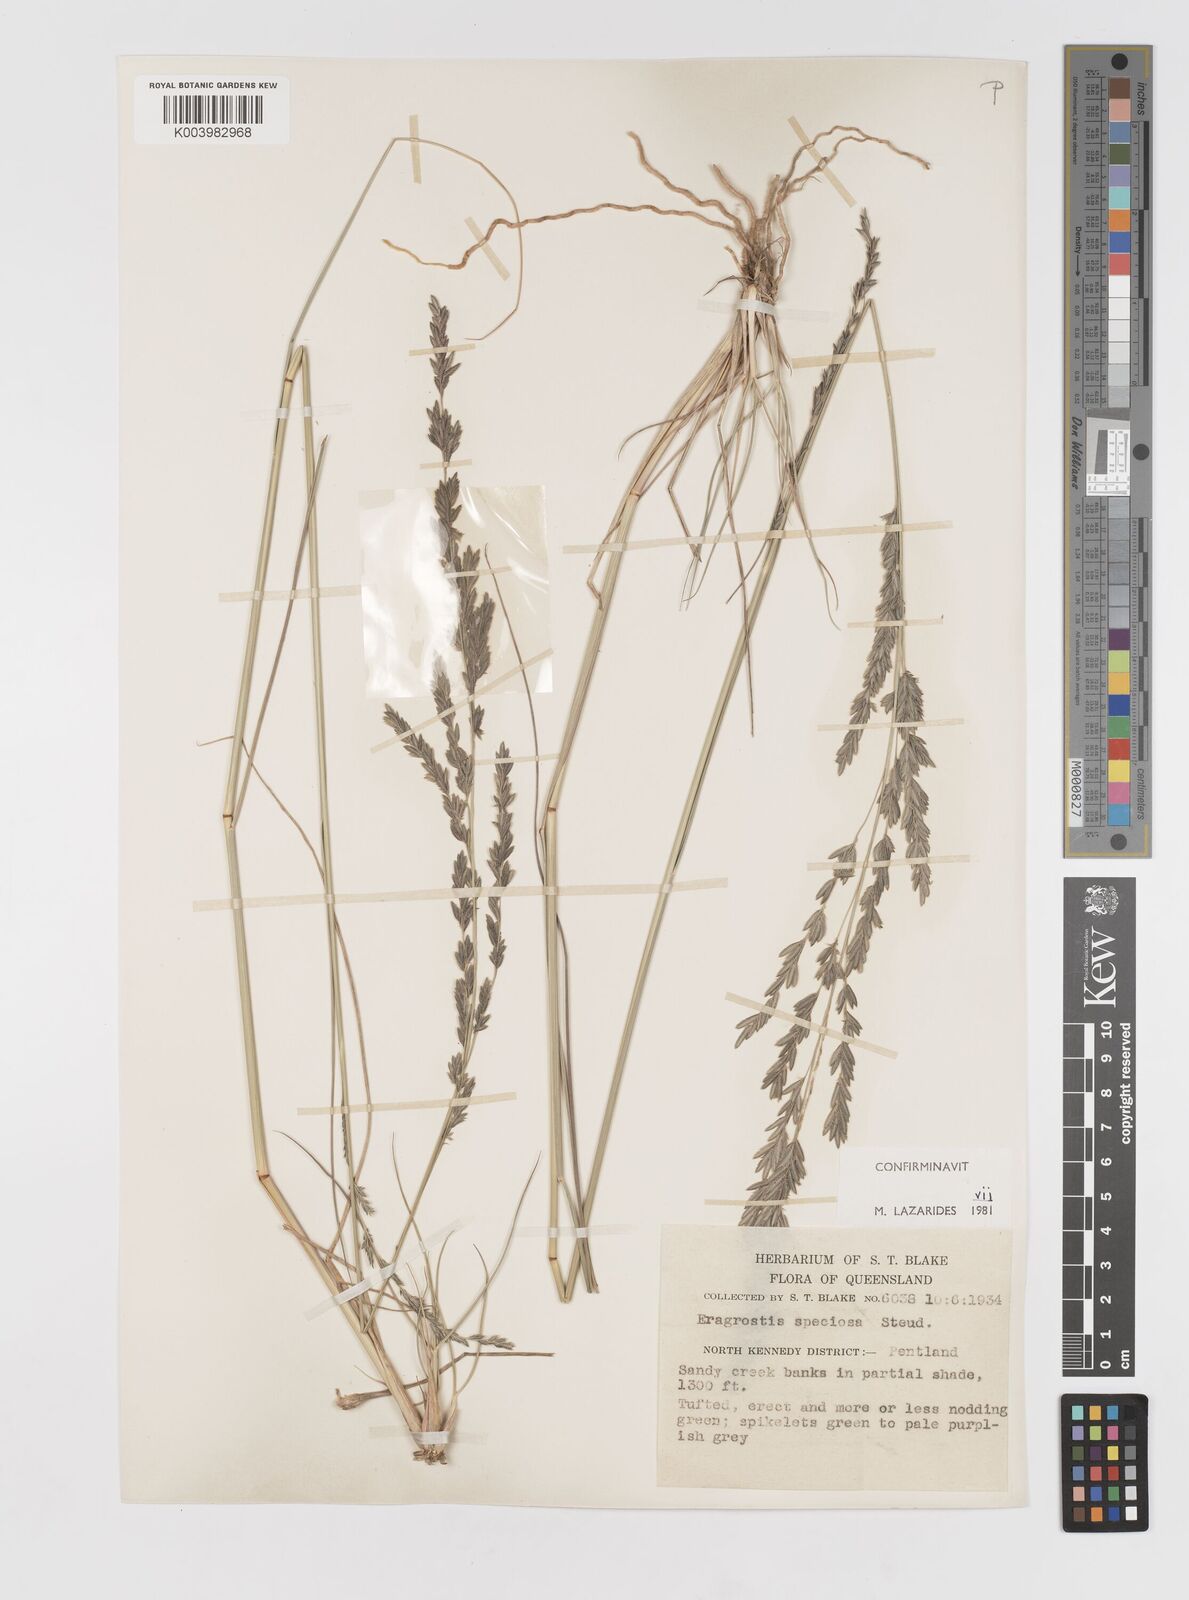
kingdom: Plantae
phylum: Tracheophyta
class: Liliopsida
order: Poales
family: Poaceae
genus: Eragrostis
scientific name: Eragrostis speciosa
